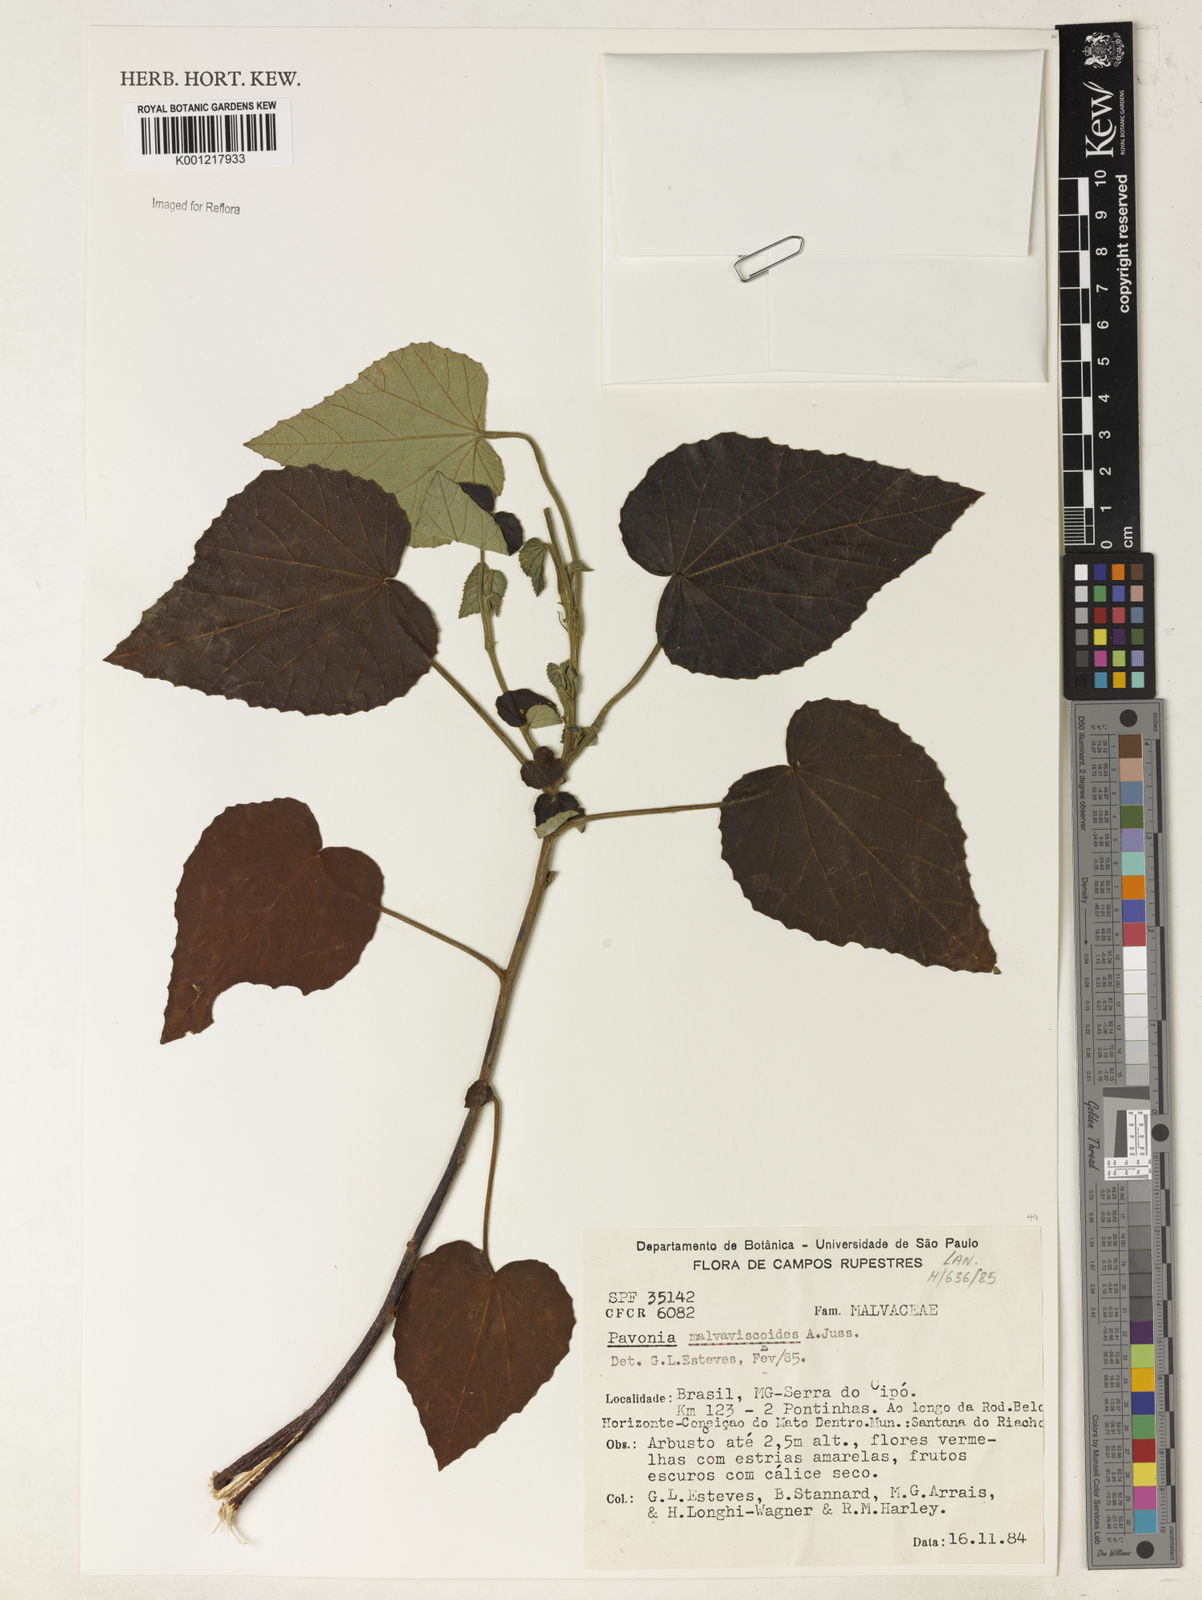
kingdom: Plantae
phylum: Tracheophyta
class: Magnoliopsida
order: Malvales
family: Malvaceae
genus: Pavonia
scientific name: Pavonia malvaviscoides
